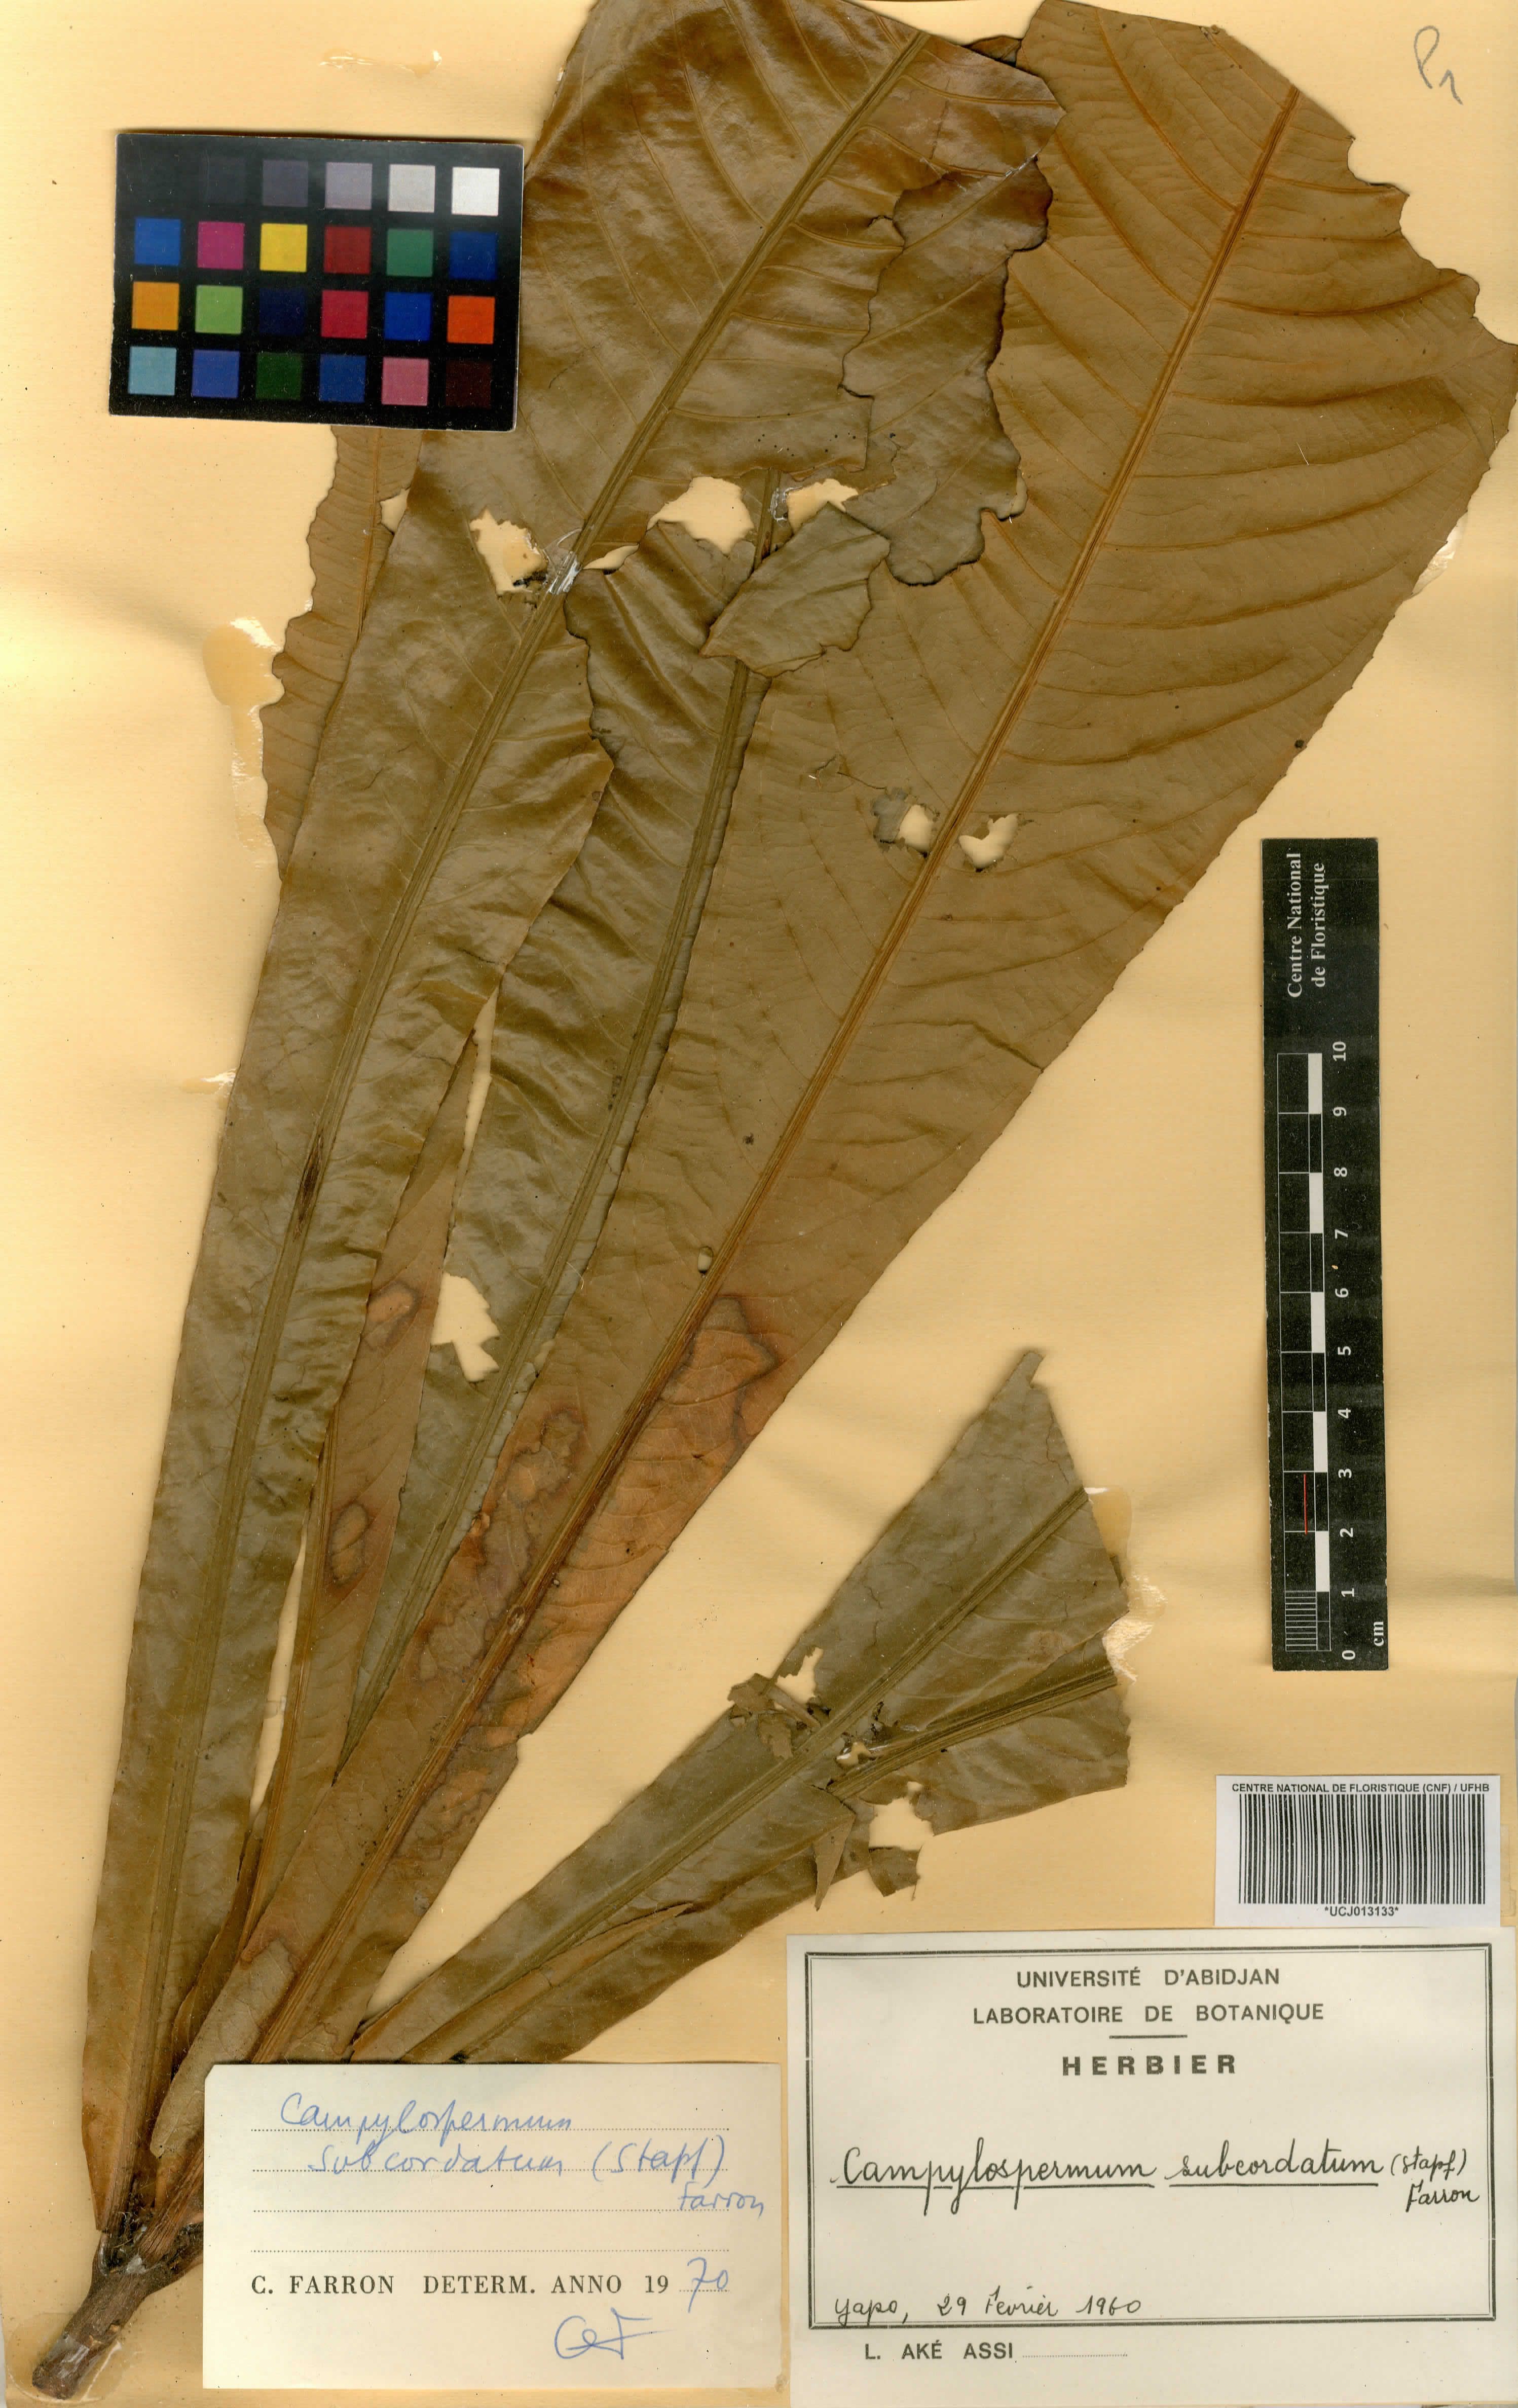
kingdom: Plantae
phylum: Tracheophyta
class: Magnoliopsida
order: Malpighiales
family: Ochnaceae
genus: Campylospermum
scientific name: Campylospermum subcordatum
